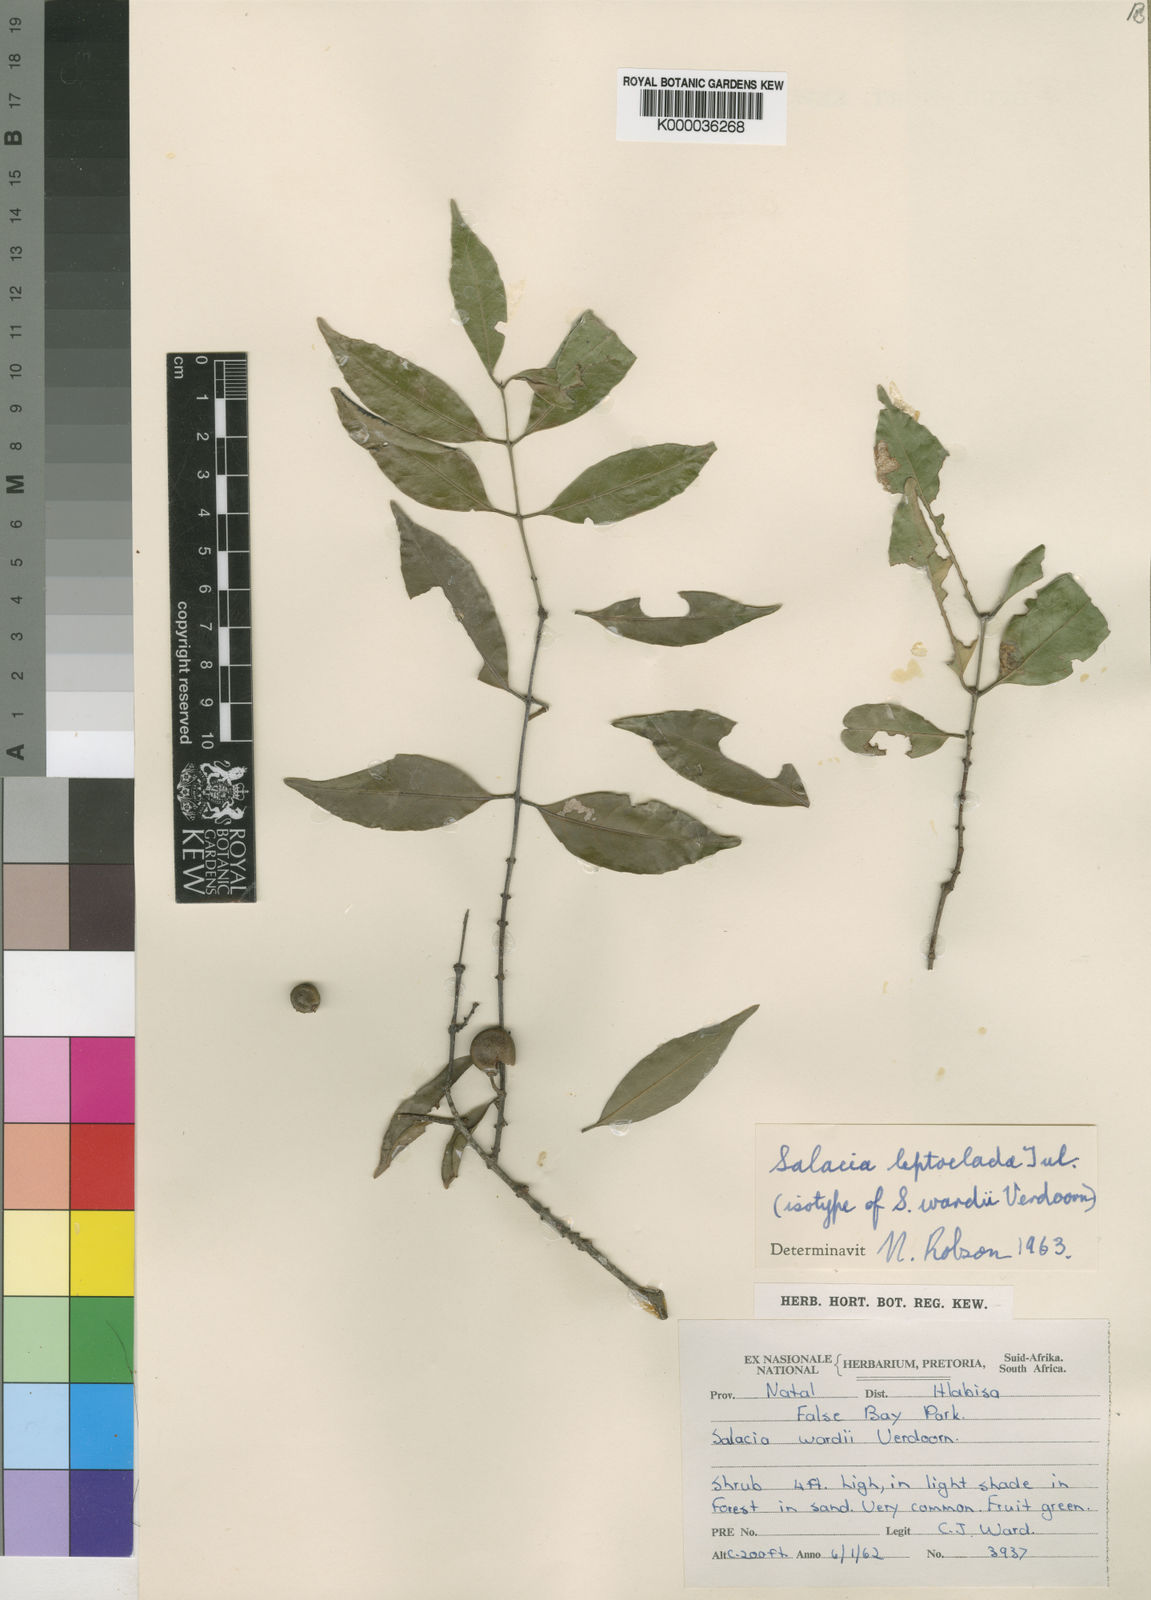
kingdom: Plantae
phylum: Tracheophyta
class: Magnoliopsida
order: Celastrales
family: Celastraceae
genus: Salacia
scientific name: Salacia leptoclada
